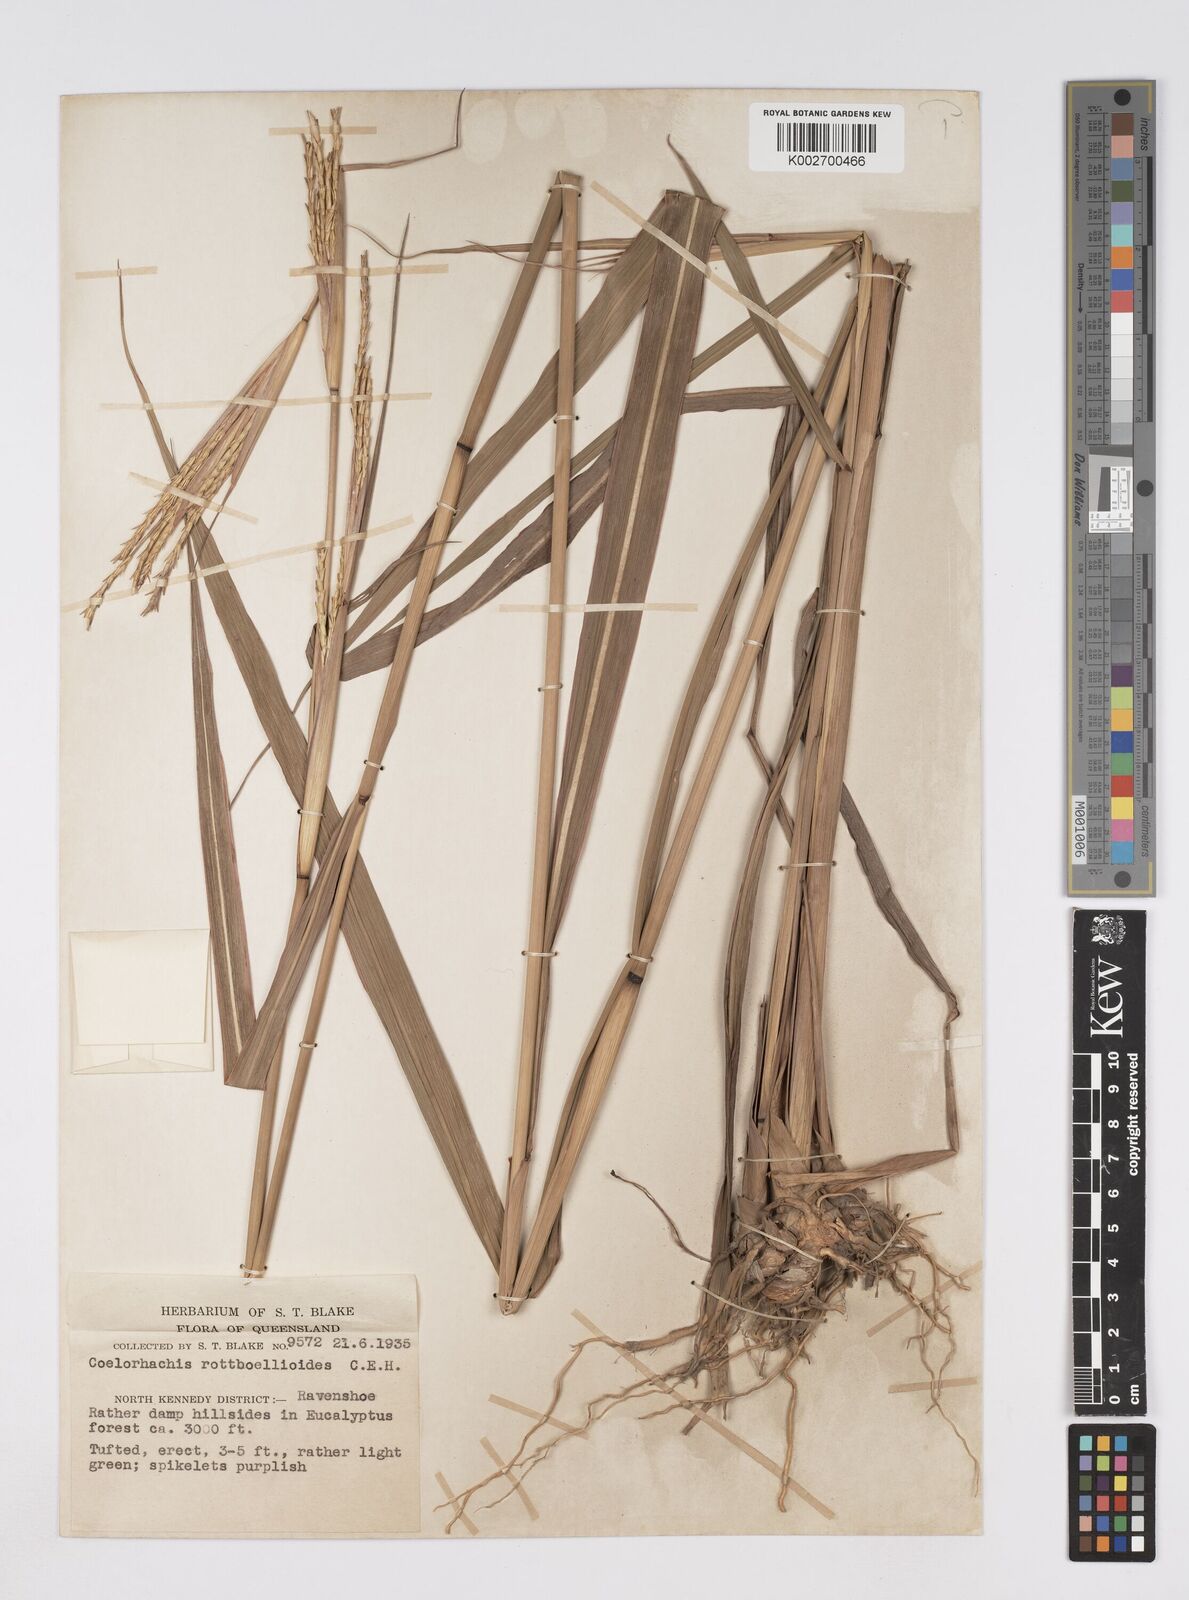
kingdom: Plantae
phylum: Tracheophyta
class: Liliopsida
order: Poales
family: Poaceae
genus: Rottboellia
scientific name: Rottboellia rottboellioides
